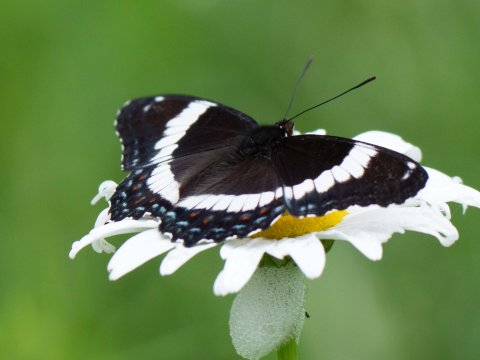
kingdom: Animalia
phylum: Arthropoda
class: Insecta
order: Lepidoptera
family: Nymphalidae
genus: Limenitis
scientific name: Limenitis arthemis
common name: Red-spotted Admiral
